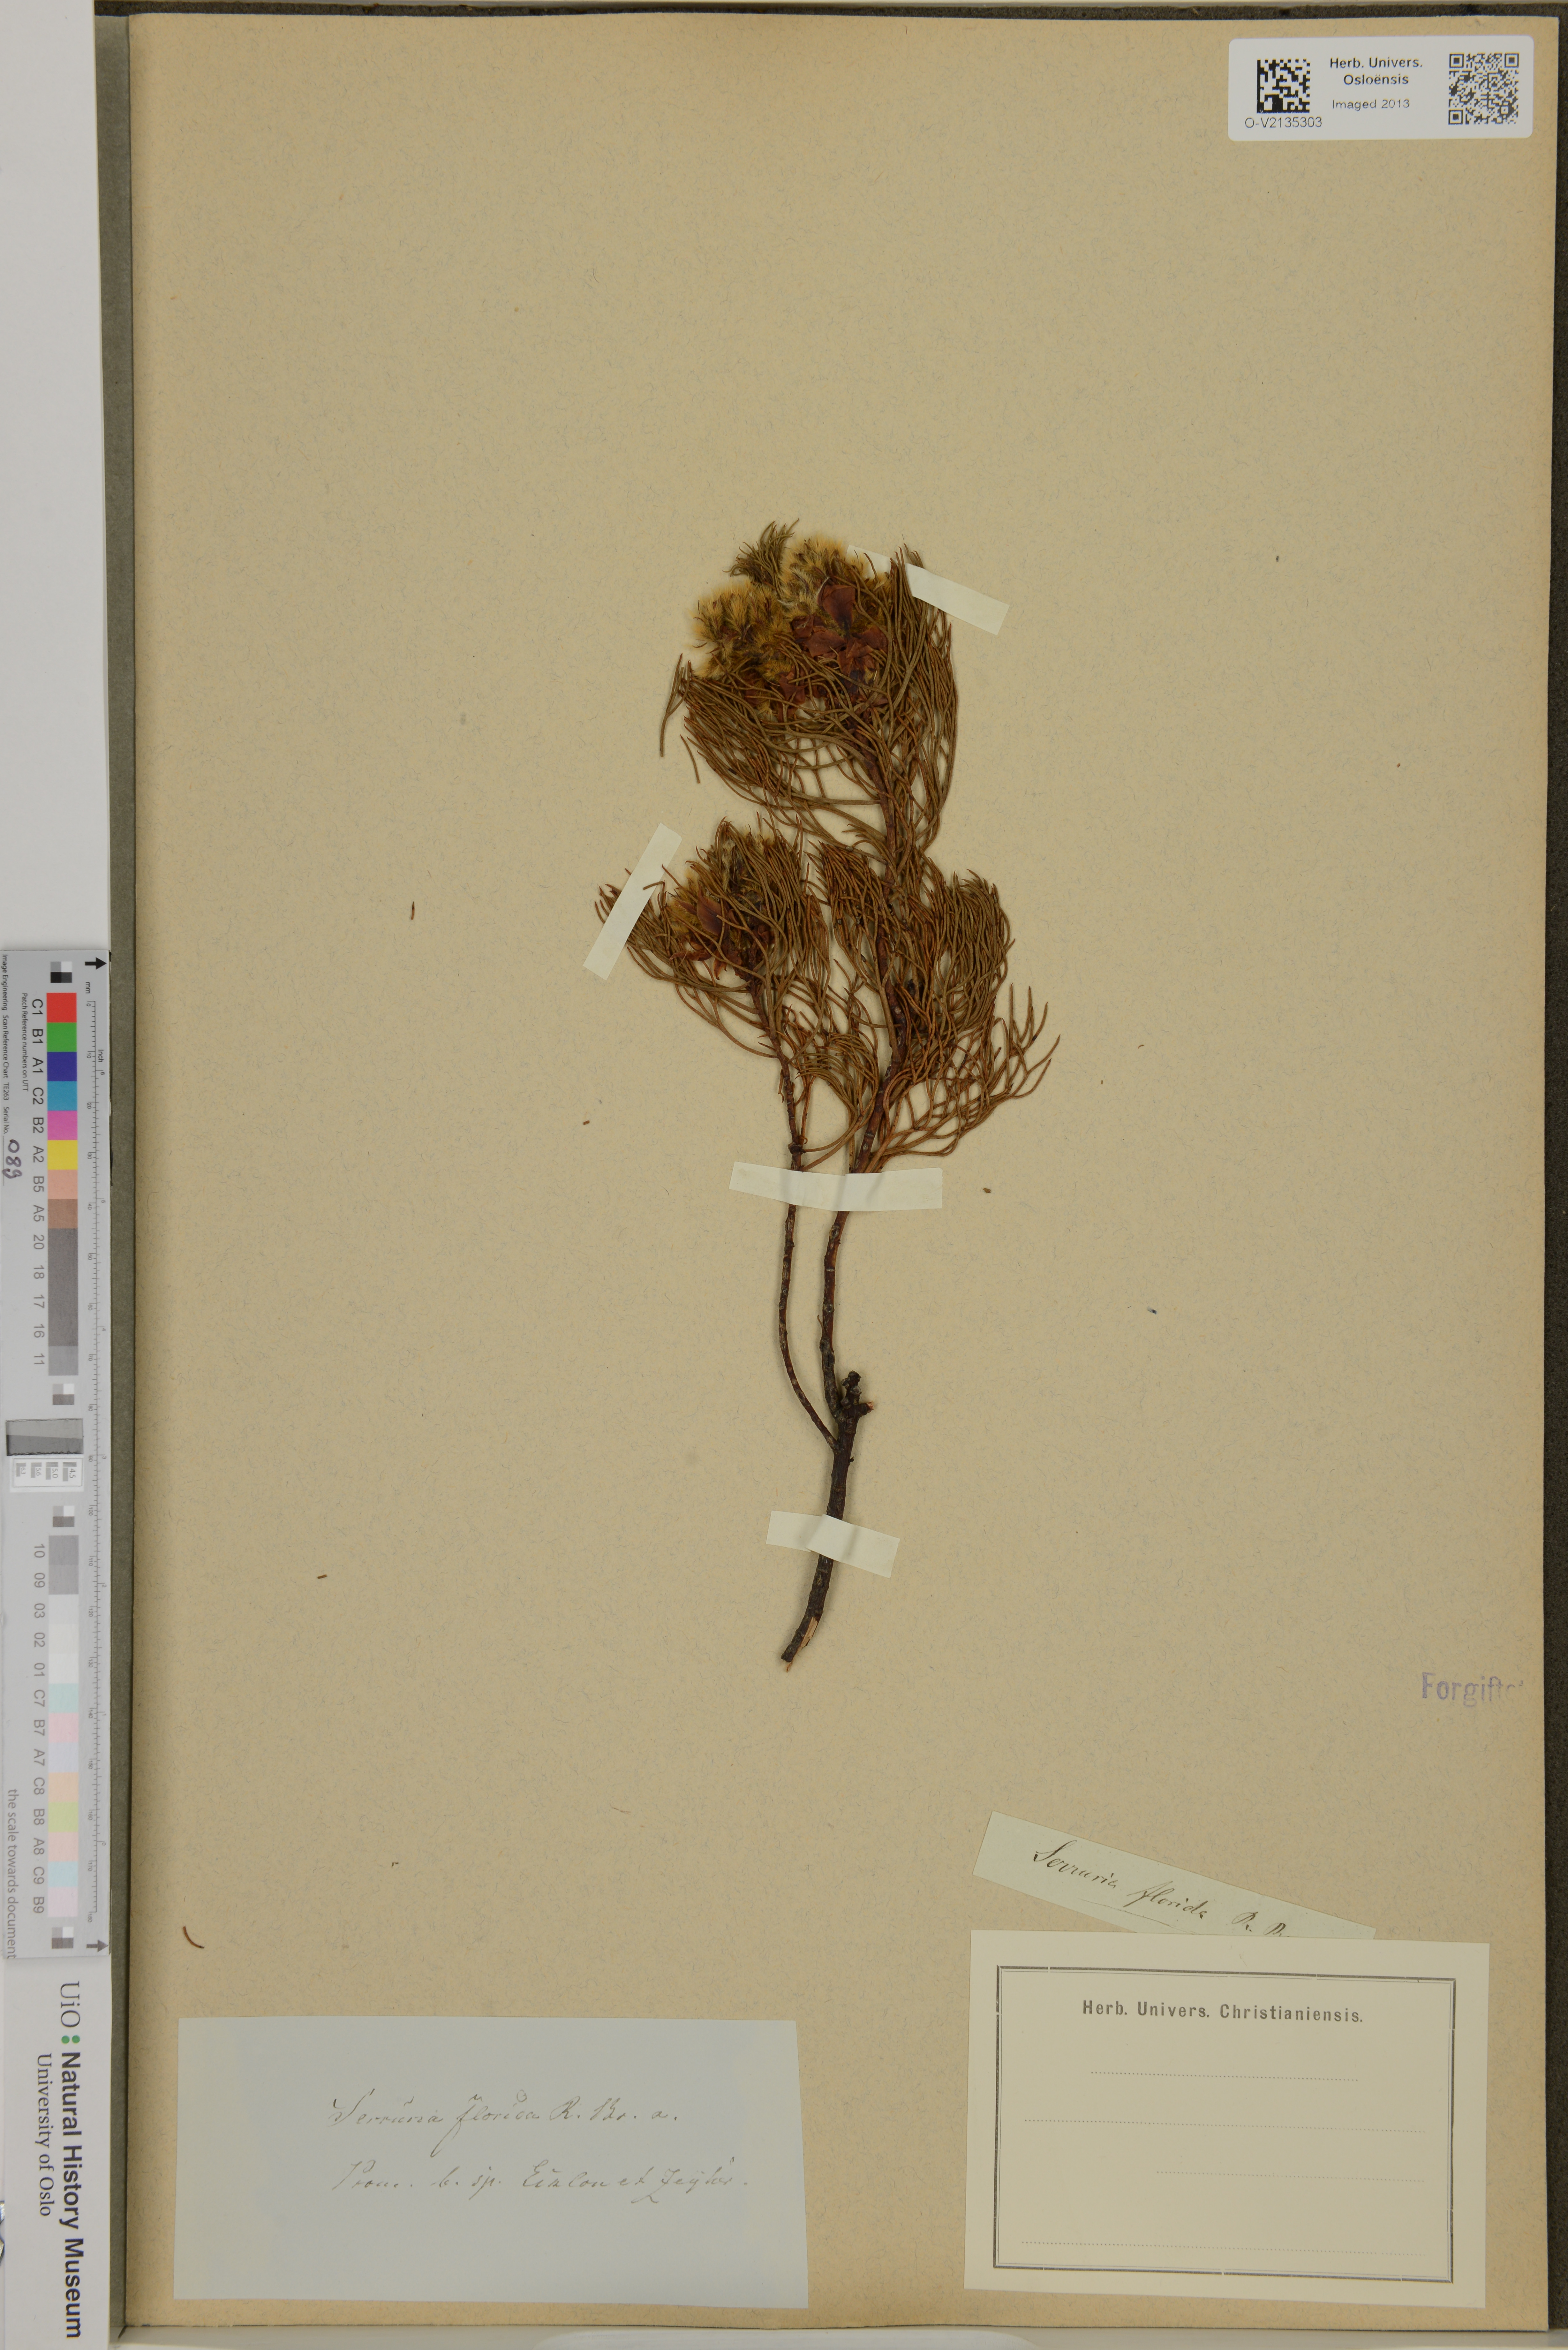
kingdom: Plantae
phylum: Tracheophyta
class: Magnoliopsida
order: Proteales
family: Proteaceae
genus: Serruria
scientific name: Serruria florida
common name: Blushing bride
